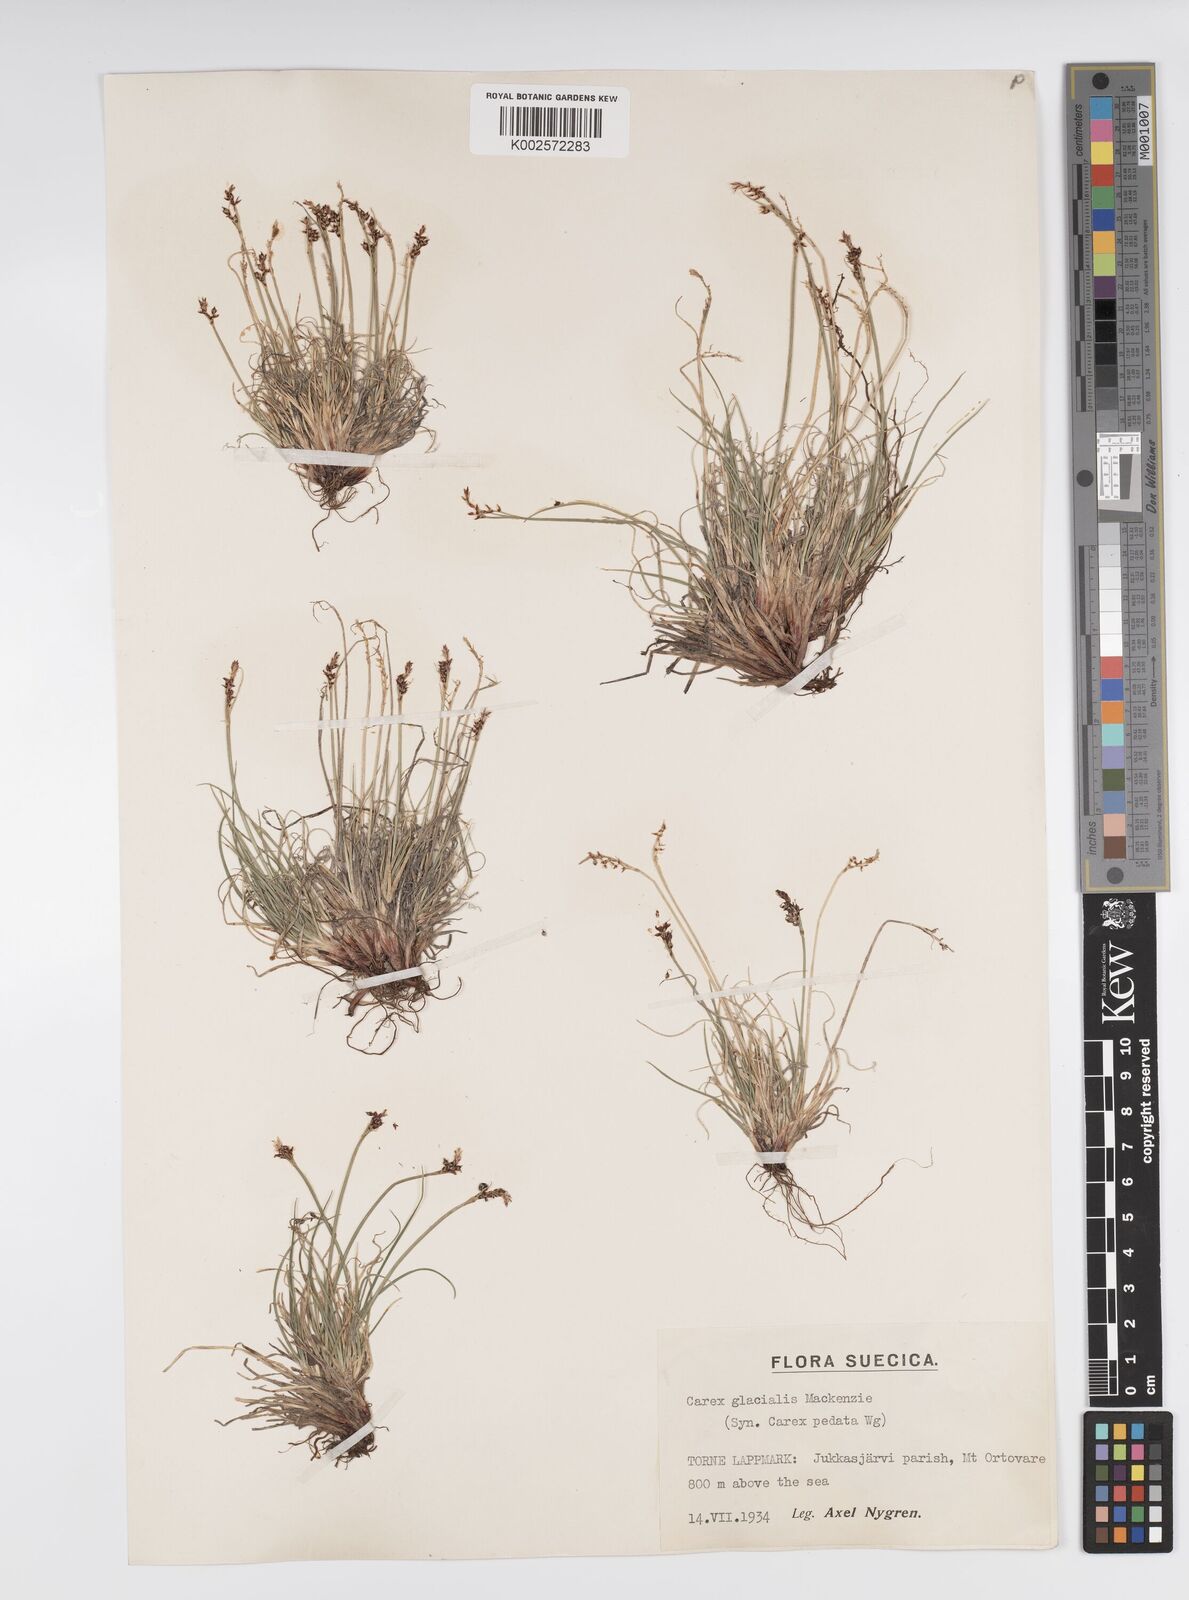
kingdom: Plantae
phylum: Tracheophyta
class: Liliopsida
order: Poales
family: Cyperaceae
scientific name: Cyperaceae
